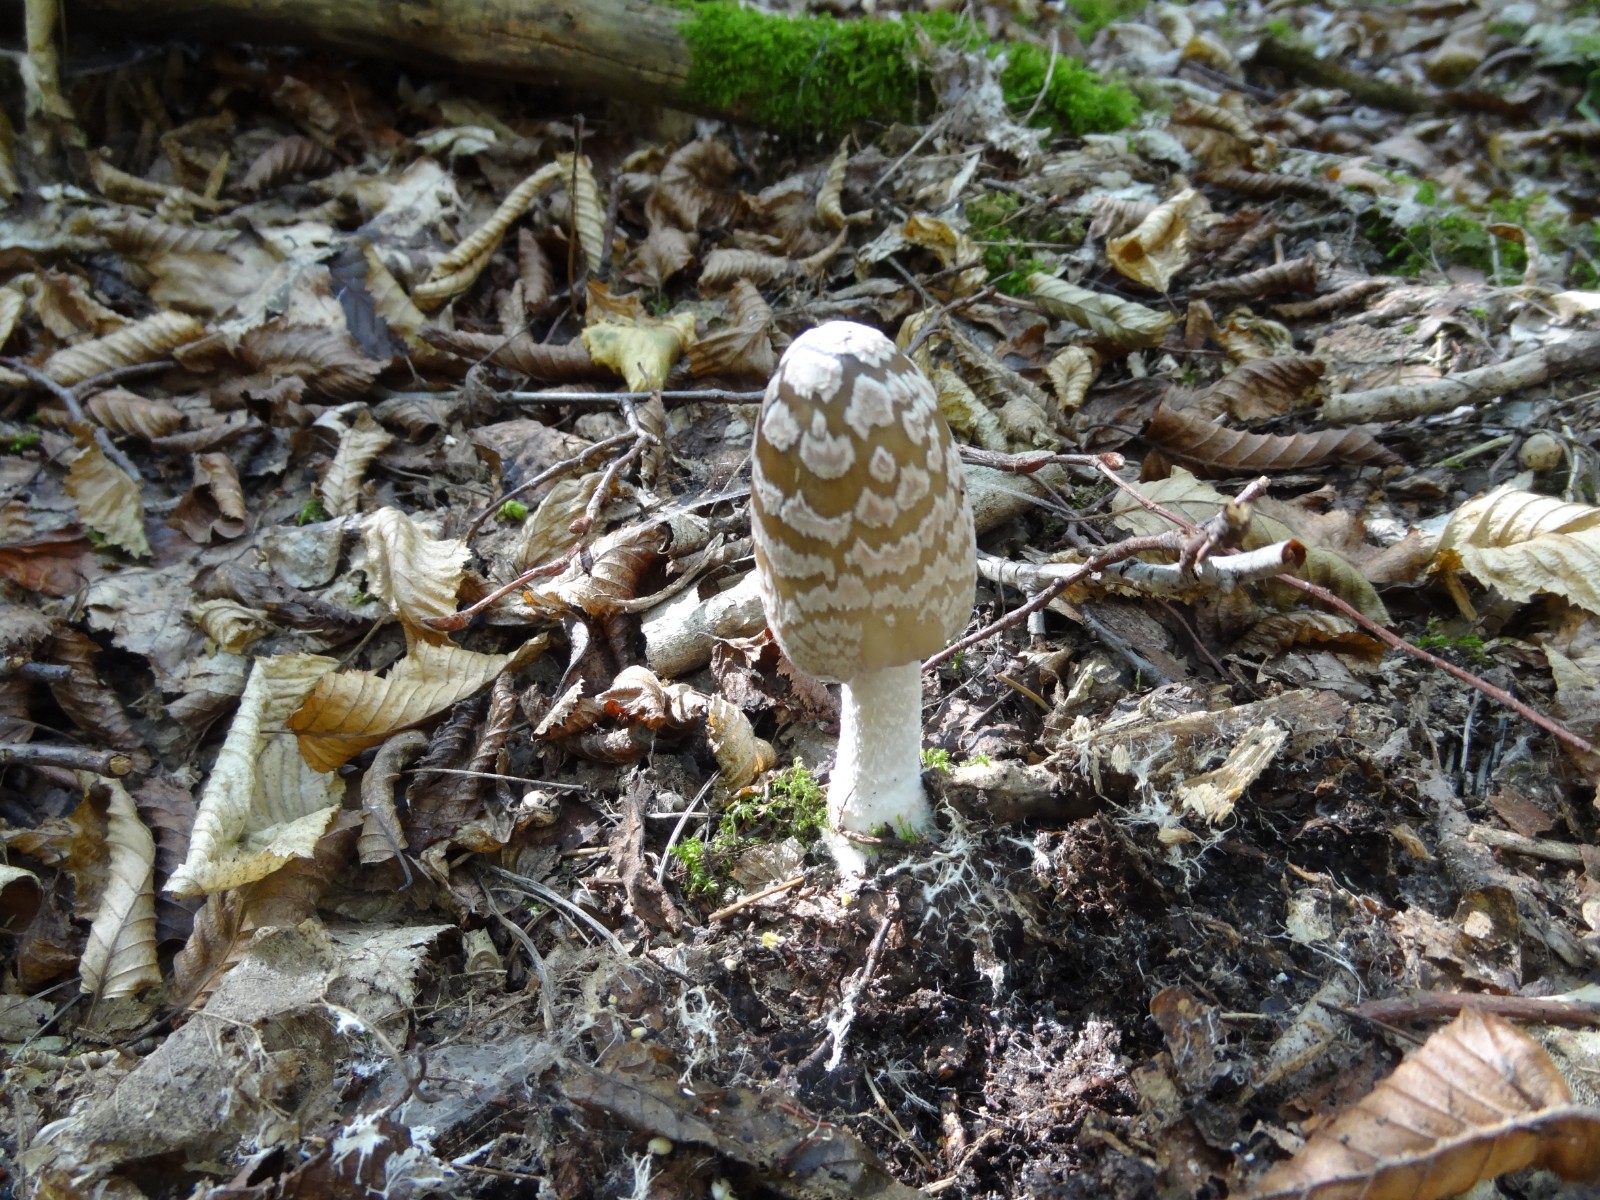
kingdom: Fungi
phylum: Basidiomycota
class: Agaricomycetes
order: Agaricales
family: Psathyrellaceae
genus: Coprinopsis
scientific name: Coprinopsis picacea
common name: skade-blækhat
